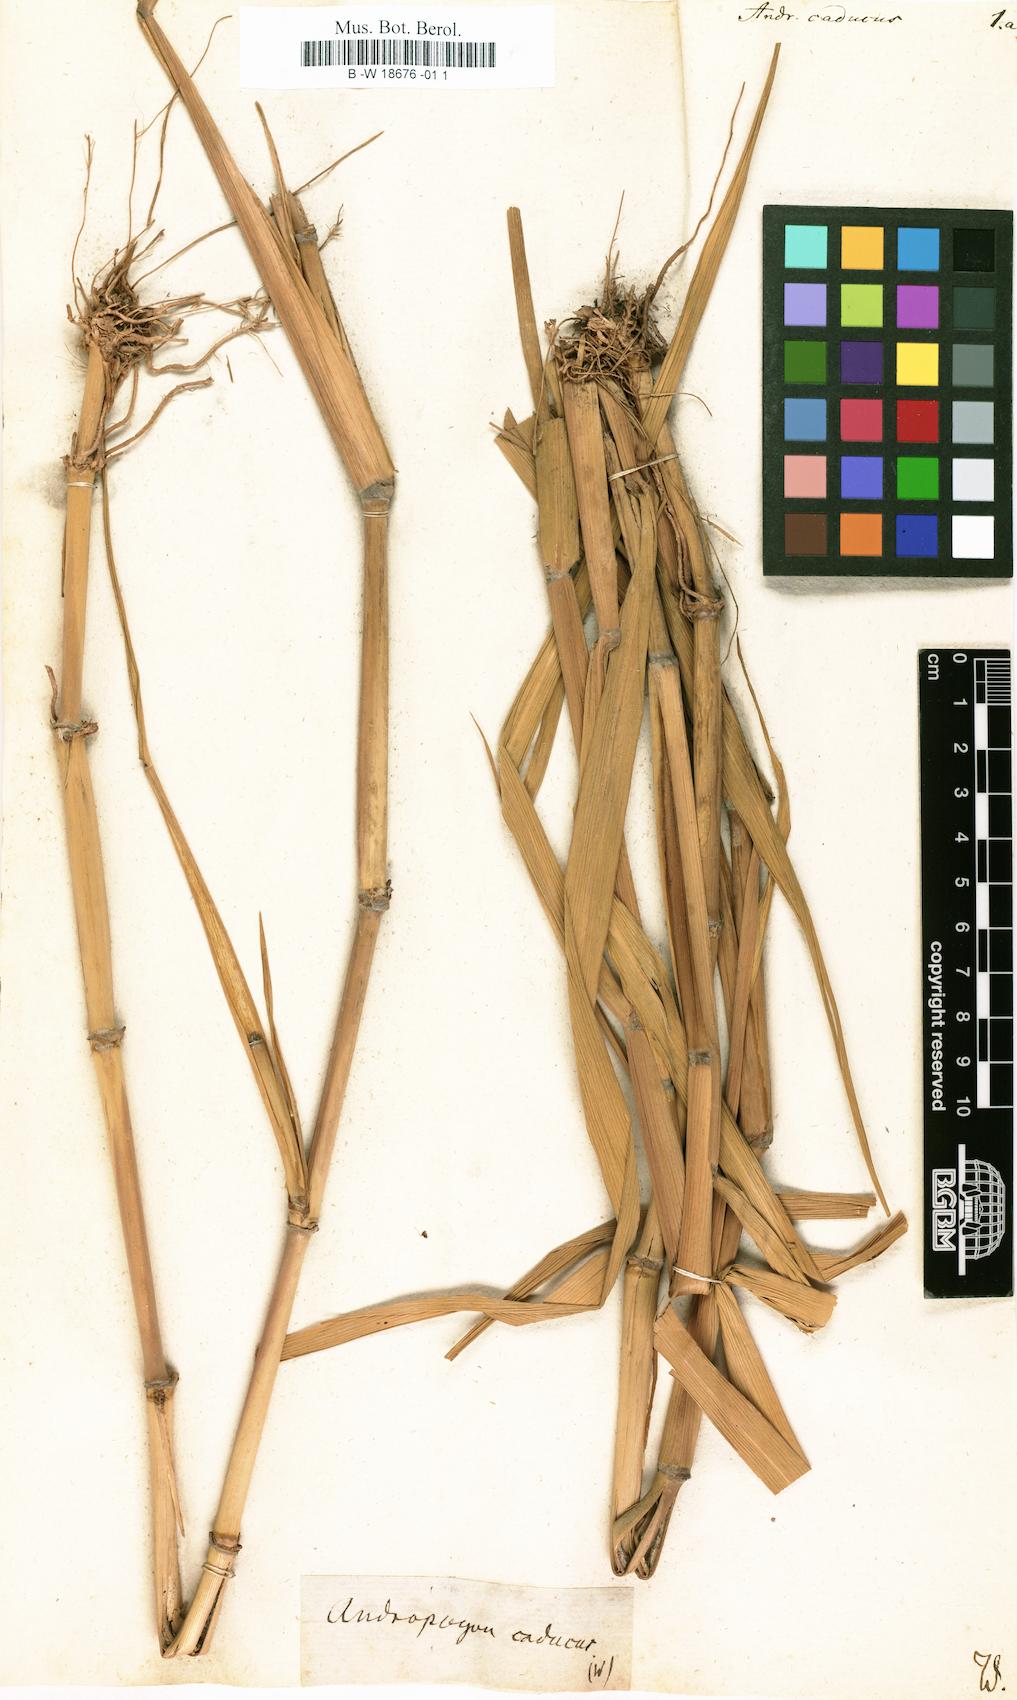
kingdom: Plantae
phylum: Tracheophyta
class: Liliopsida
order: Poales
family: Poaceae
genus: Andropogon
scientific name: Andropogon
